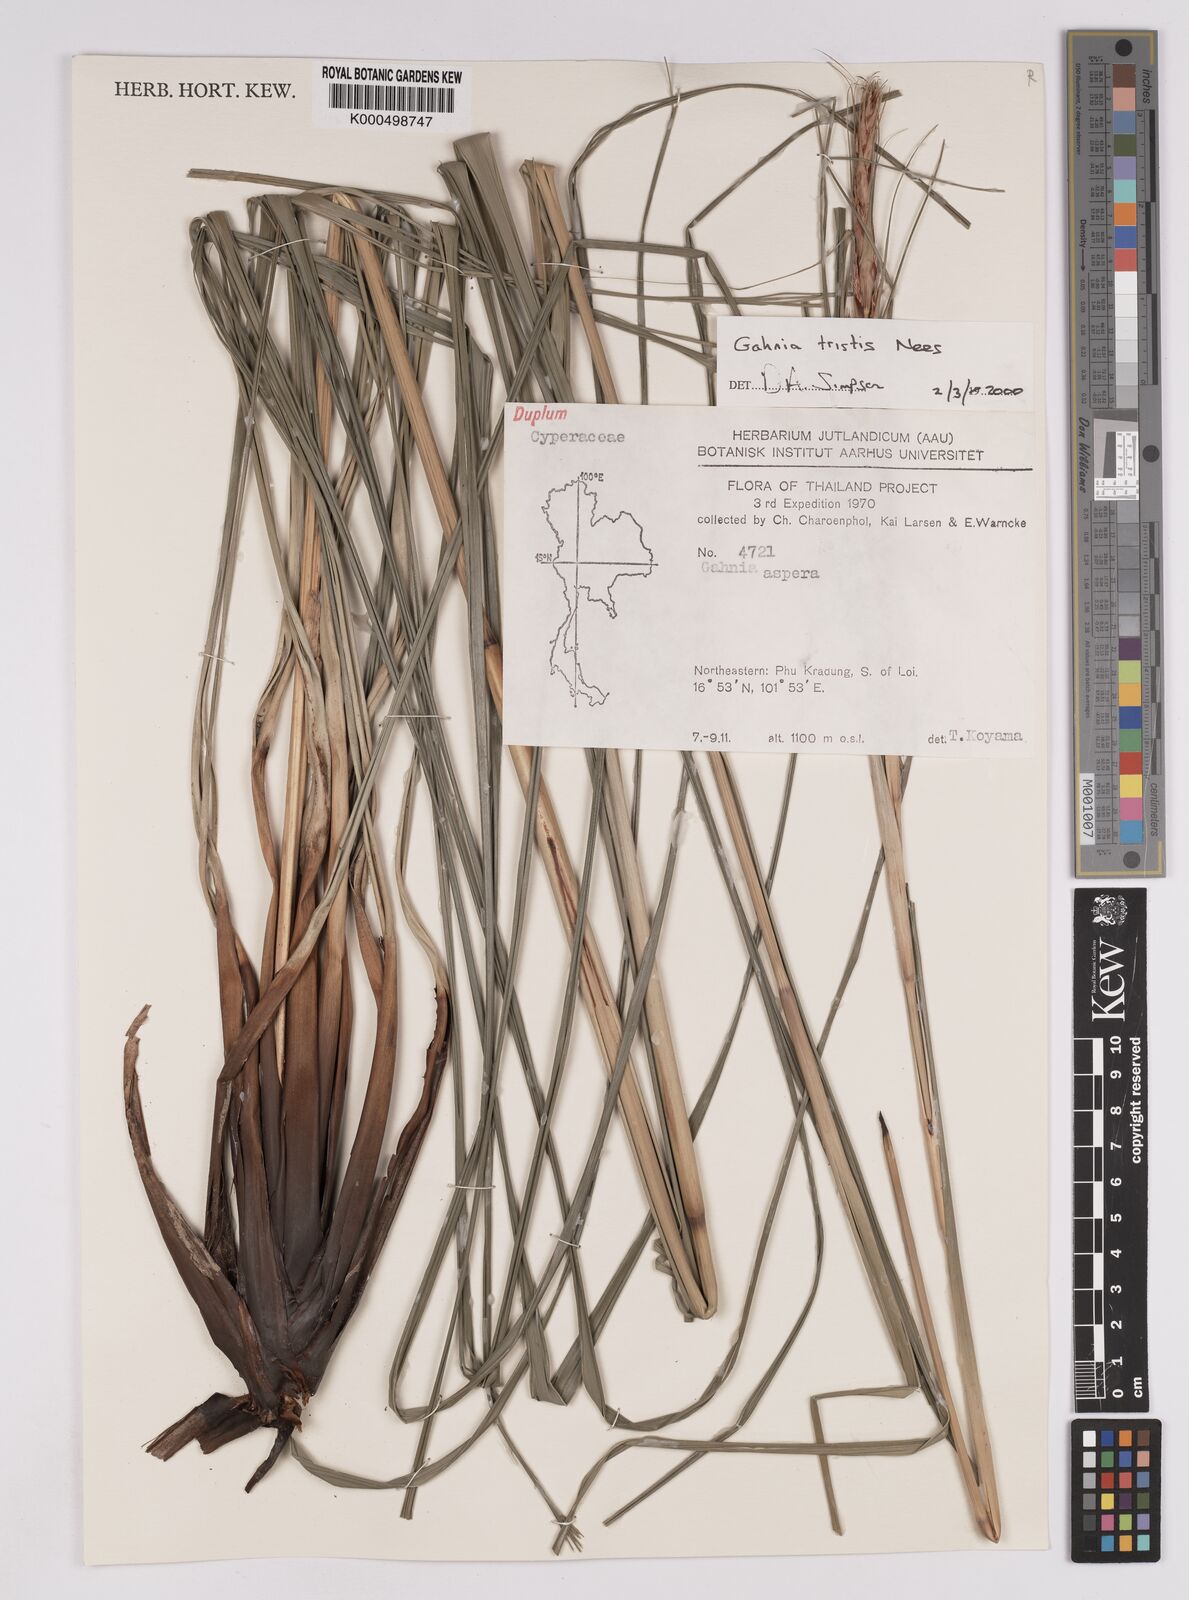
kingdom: Plantae
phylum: Tracheophyta
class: Liliopsida
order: Poales
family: Cyperaceae
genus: Gahnia
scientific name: Gahnia tristis
